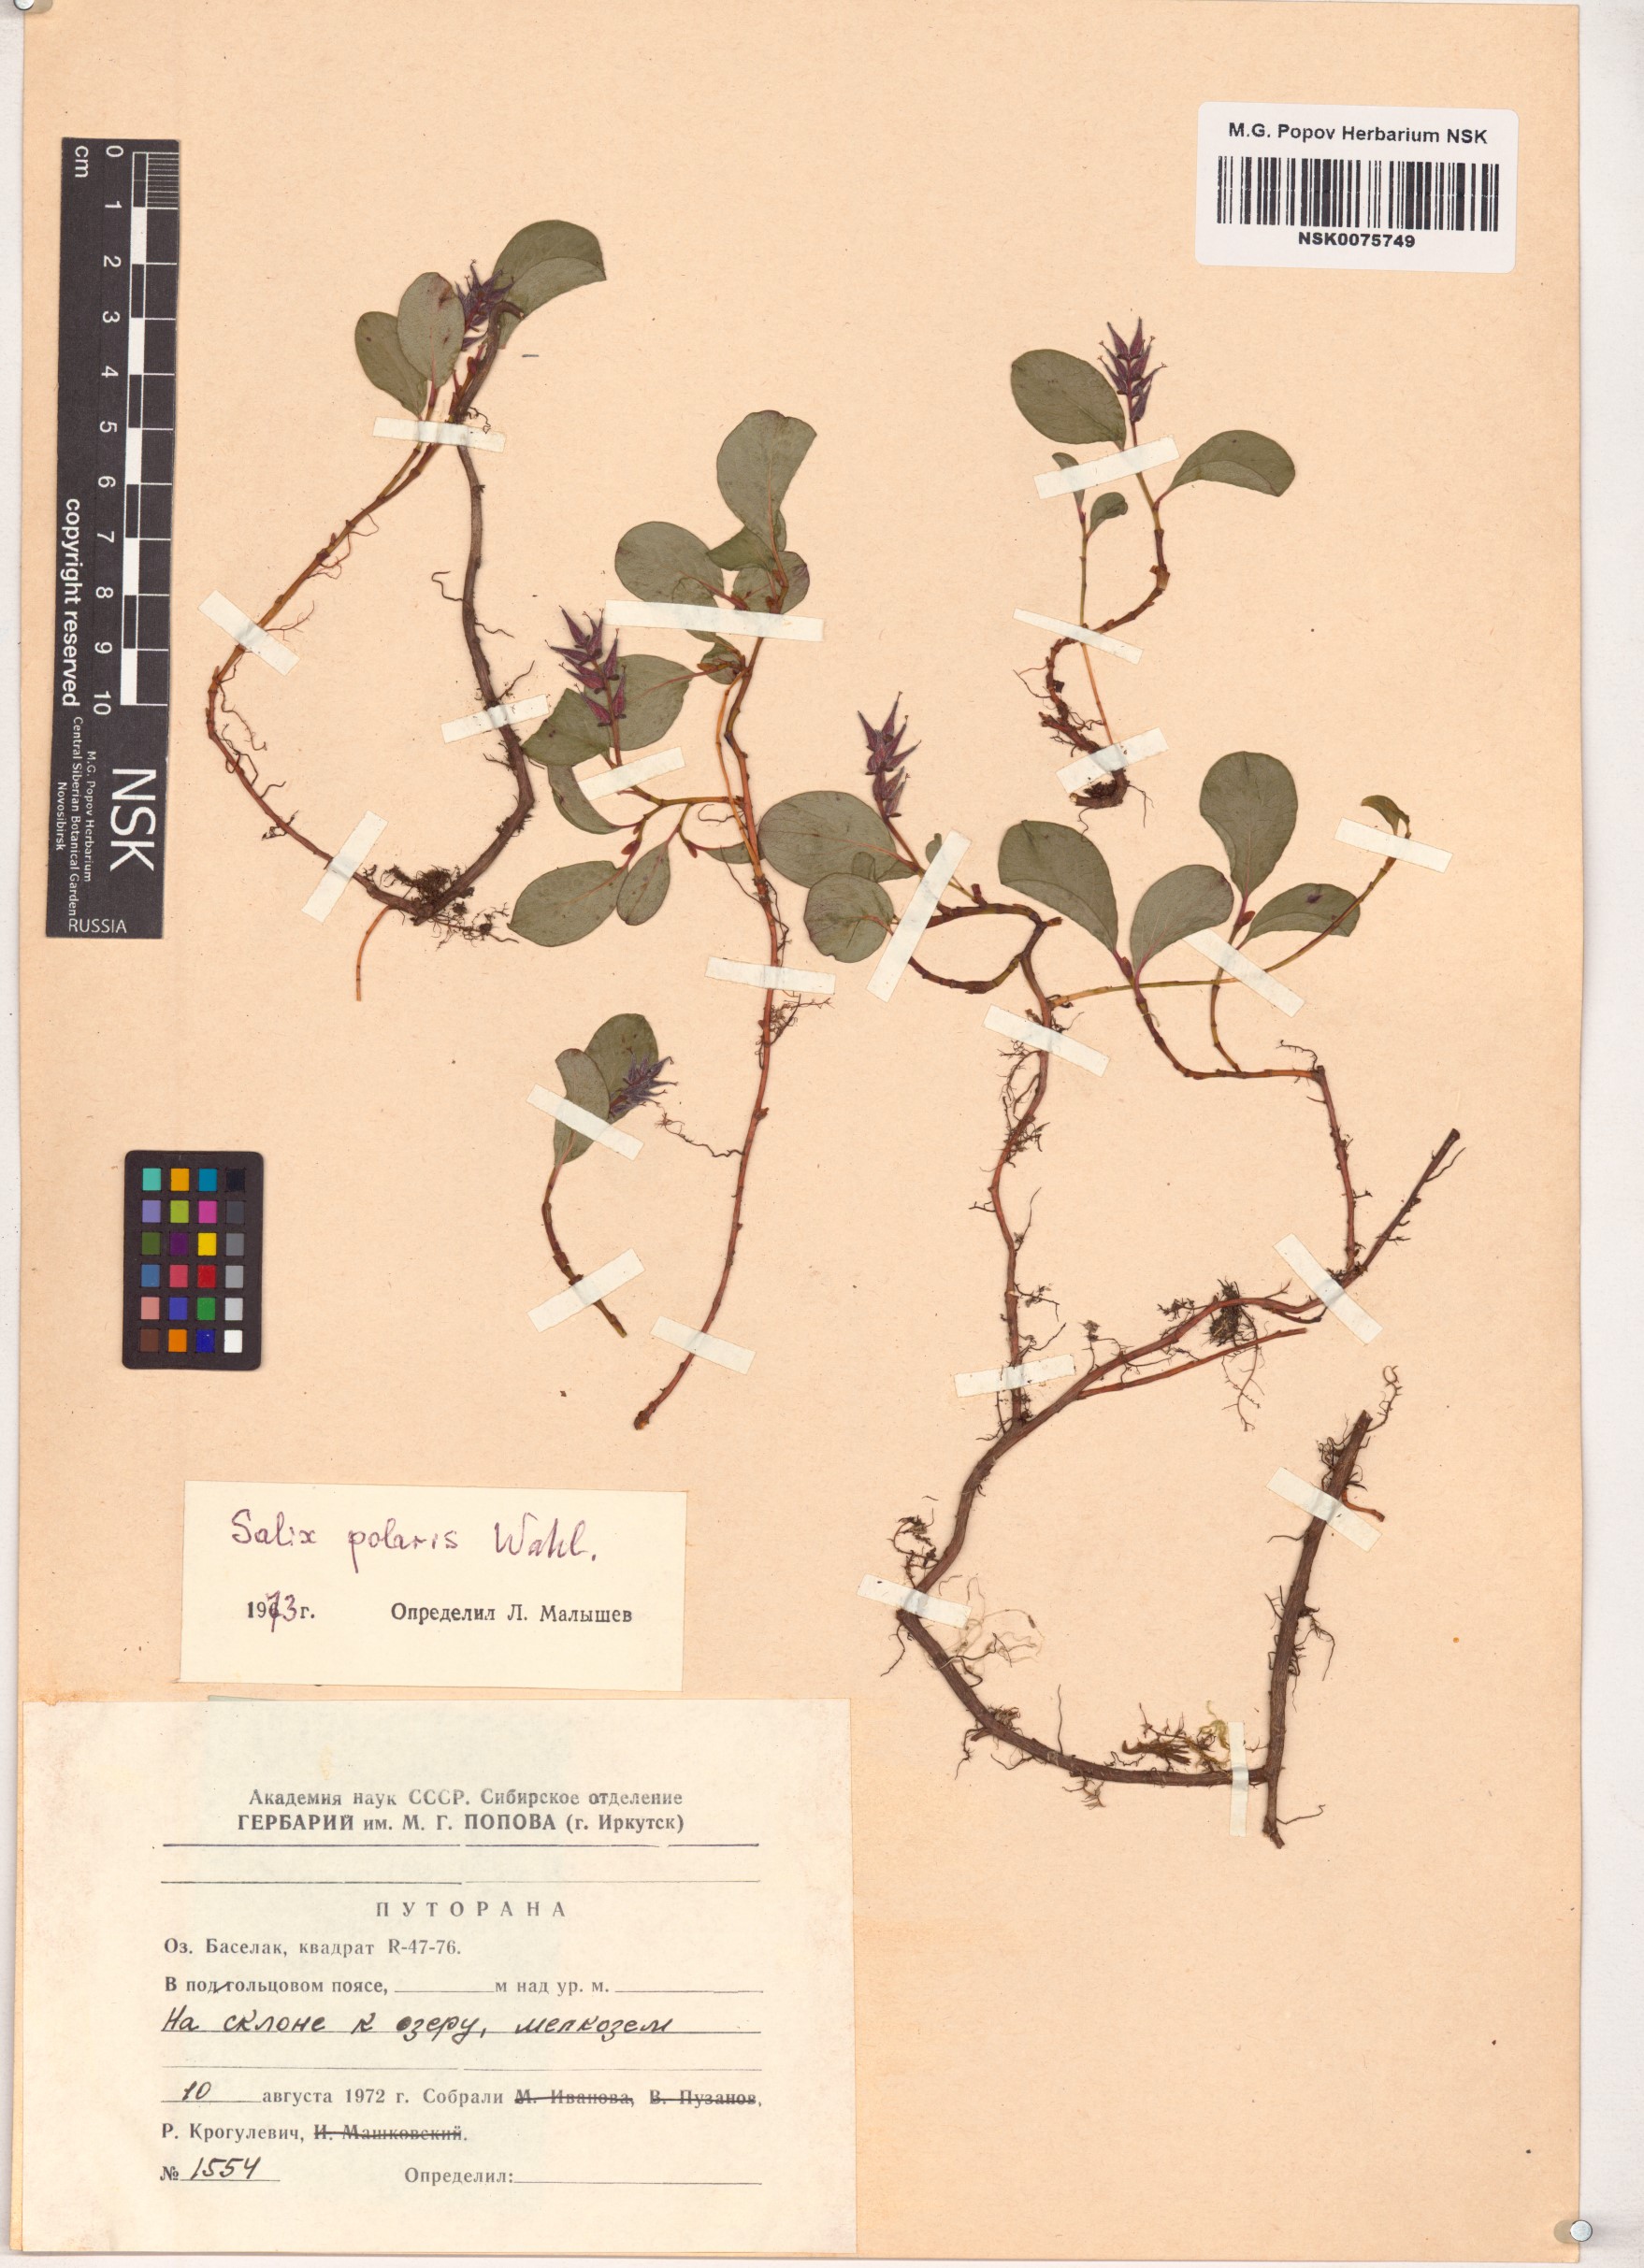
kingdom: Plantae
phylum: Tracheophyta
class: Magnoliopsida
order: Malpighiales
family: Salicaceae
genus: Salix
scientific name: Salix polaris
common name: Polar willow
